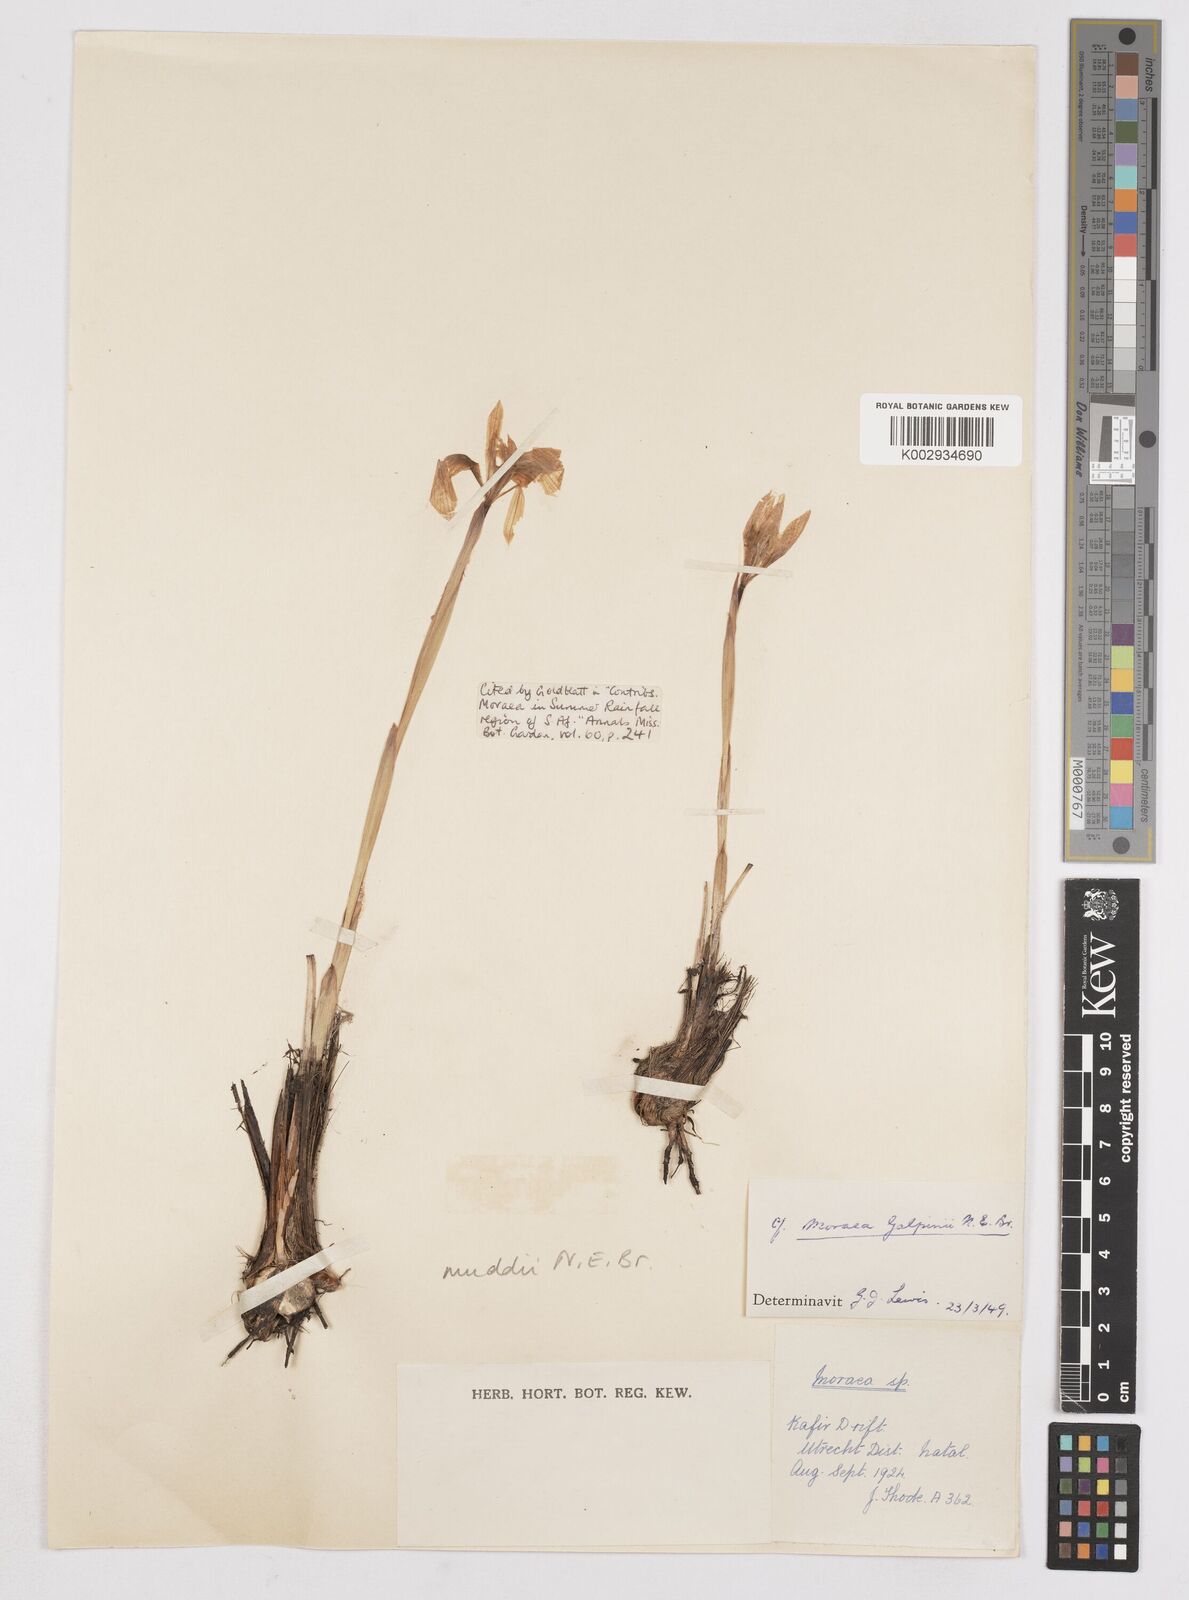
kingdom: Plantae
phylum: Tracheophyta
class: Liliopsida
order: Asparagales
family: Iridaceae
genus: Moraea
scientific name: Moraea muddii
